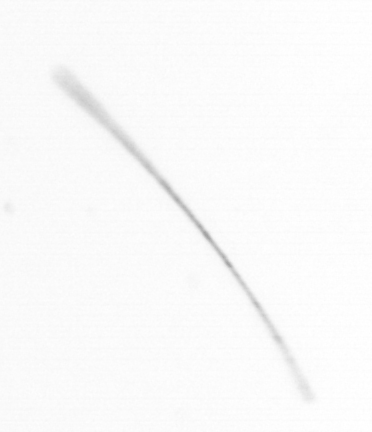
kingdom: Chromista
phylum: Ochrophyta
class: Bacillariophyceae
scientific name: Bacillariophyceae
